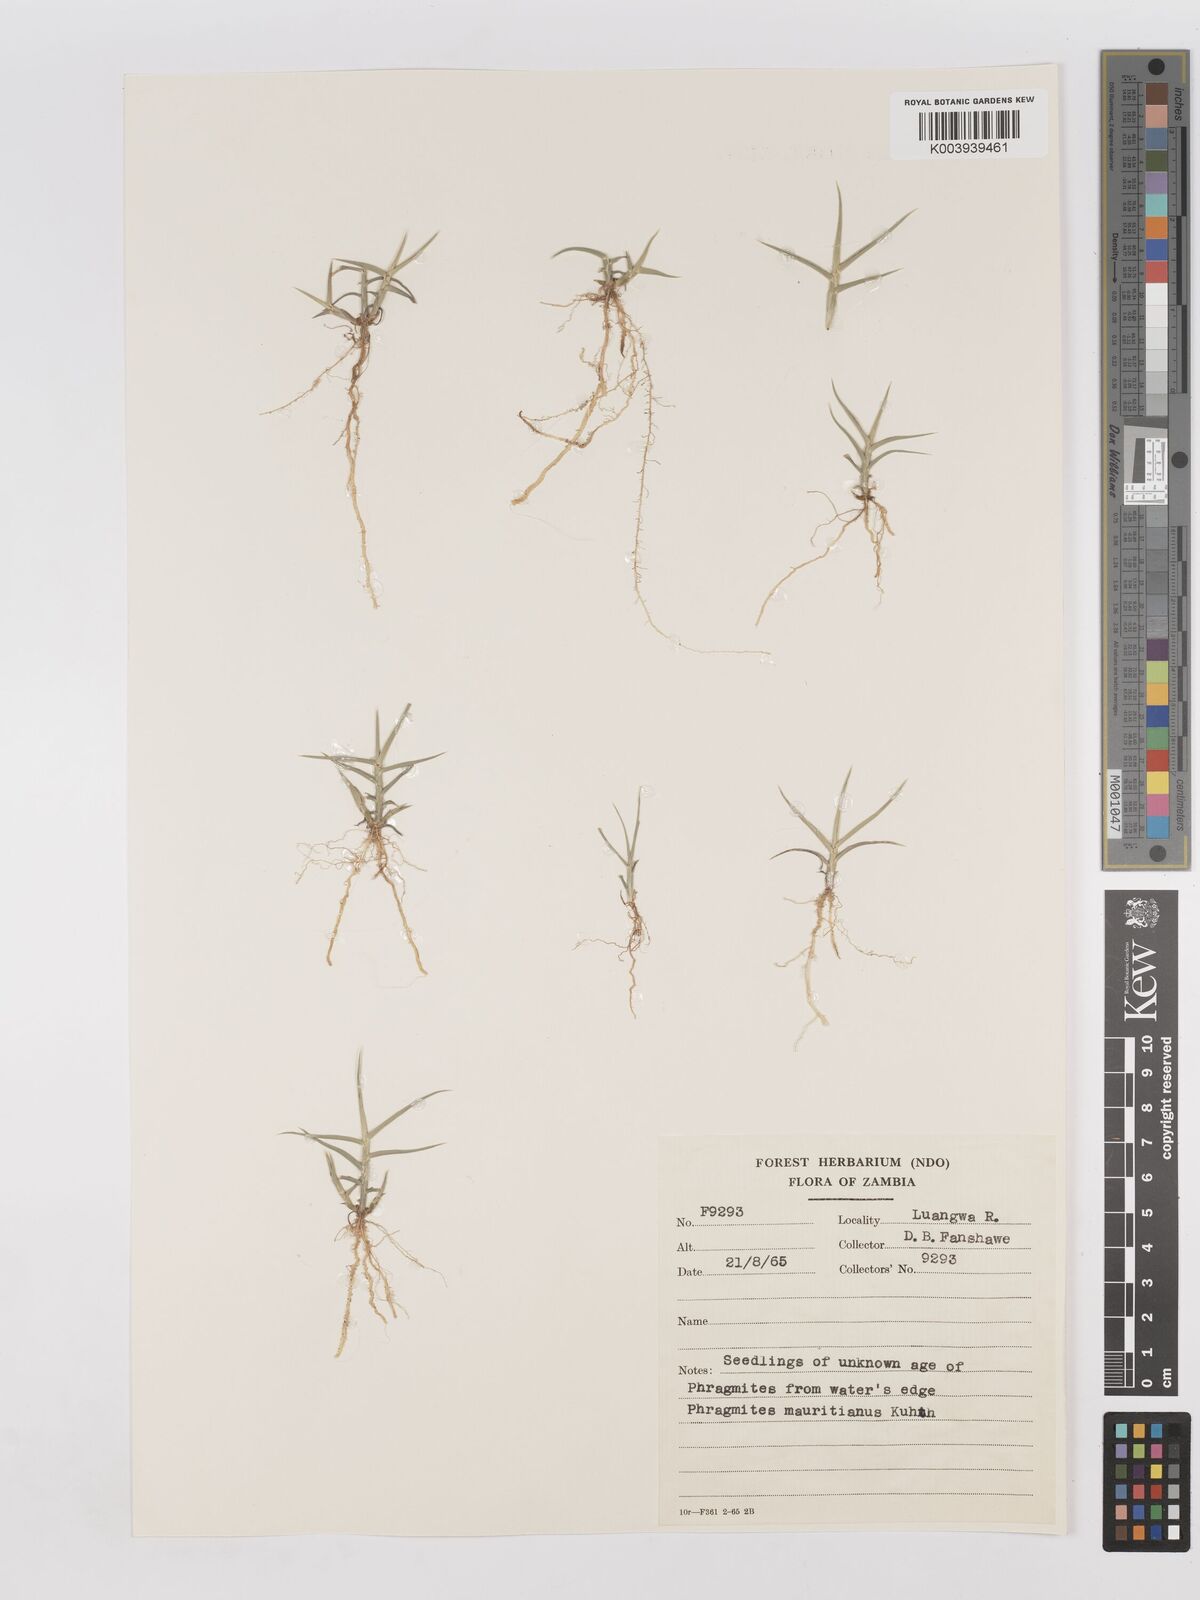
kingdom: Plantae
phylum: Tracheophyta
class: Liliopsida
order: Poales
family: Poaceae
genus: Phragmites
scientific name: Phragmites mauritianus
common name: Reed grass
